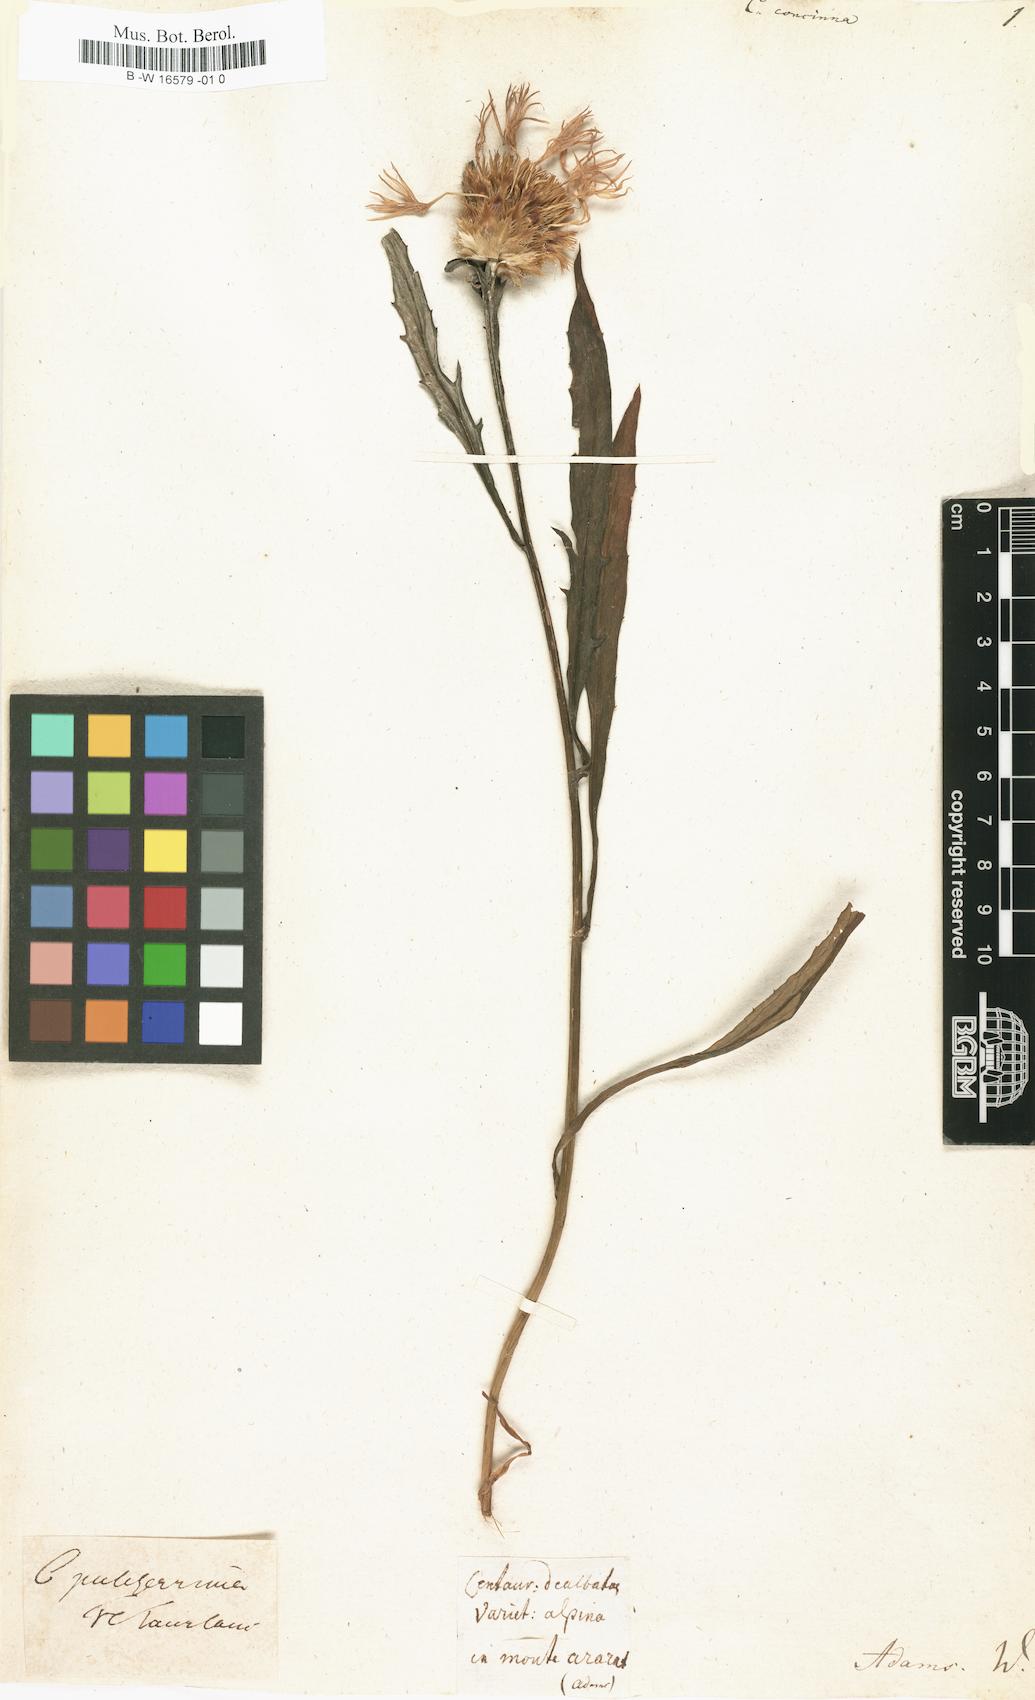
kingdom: Plantae
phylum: Tracheophyta
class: Magnoliopsida
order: Asterales
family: Asteraceae
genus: Centaurea
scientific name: Centaurea concinna
